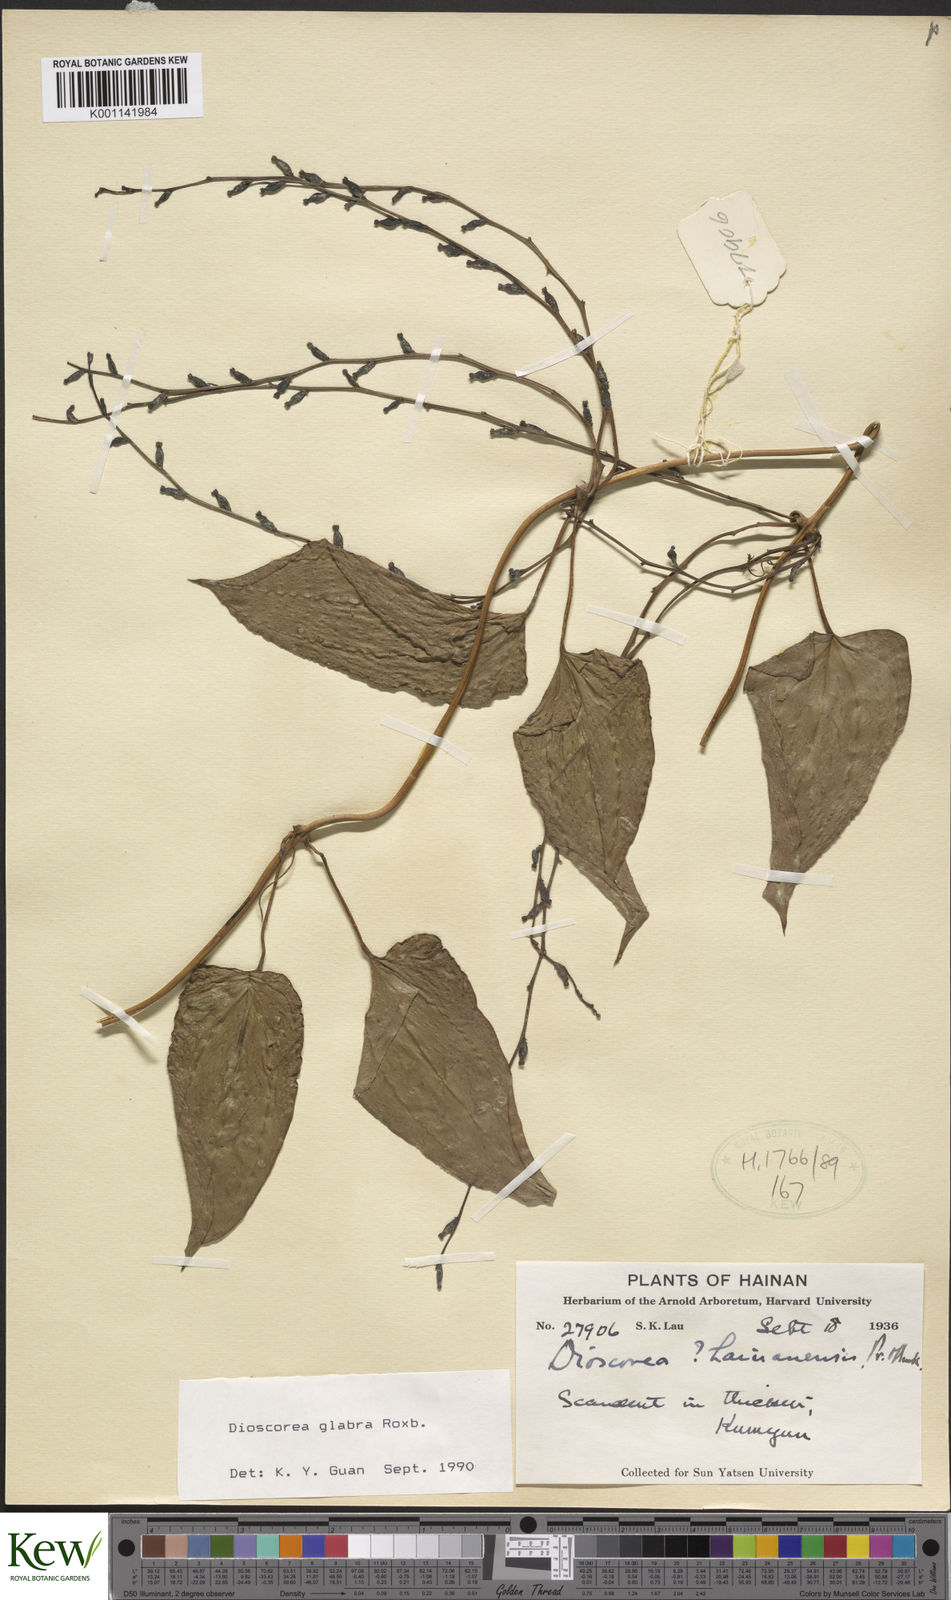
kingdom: Plantae
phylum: Tracheophyta
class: Liliopsida
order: Dioscoreales
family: Dioscoreaceae
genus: Dioscorea
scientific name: Dioscorea glabra
